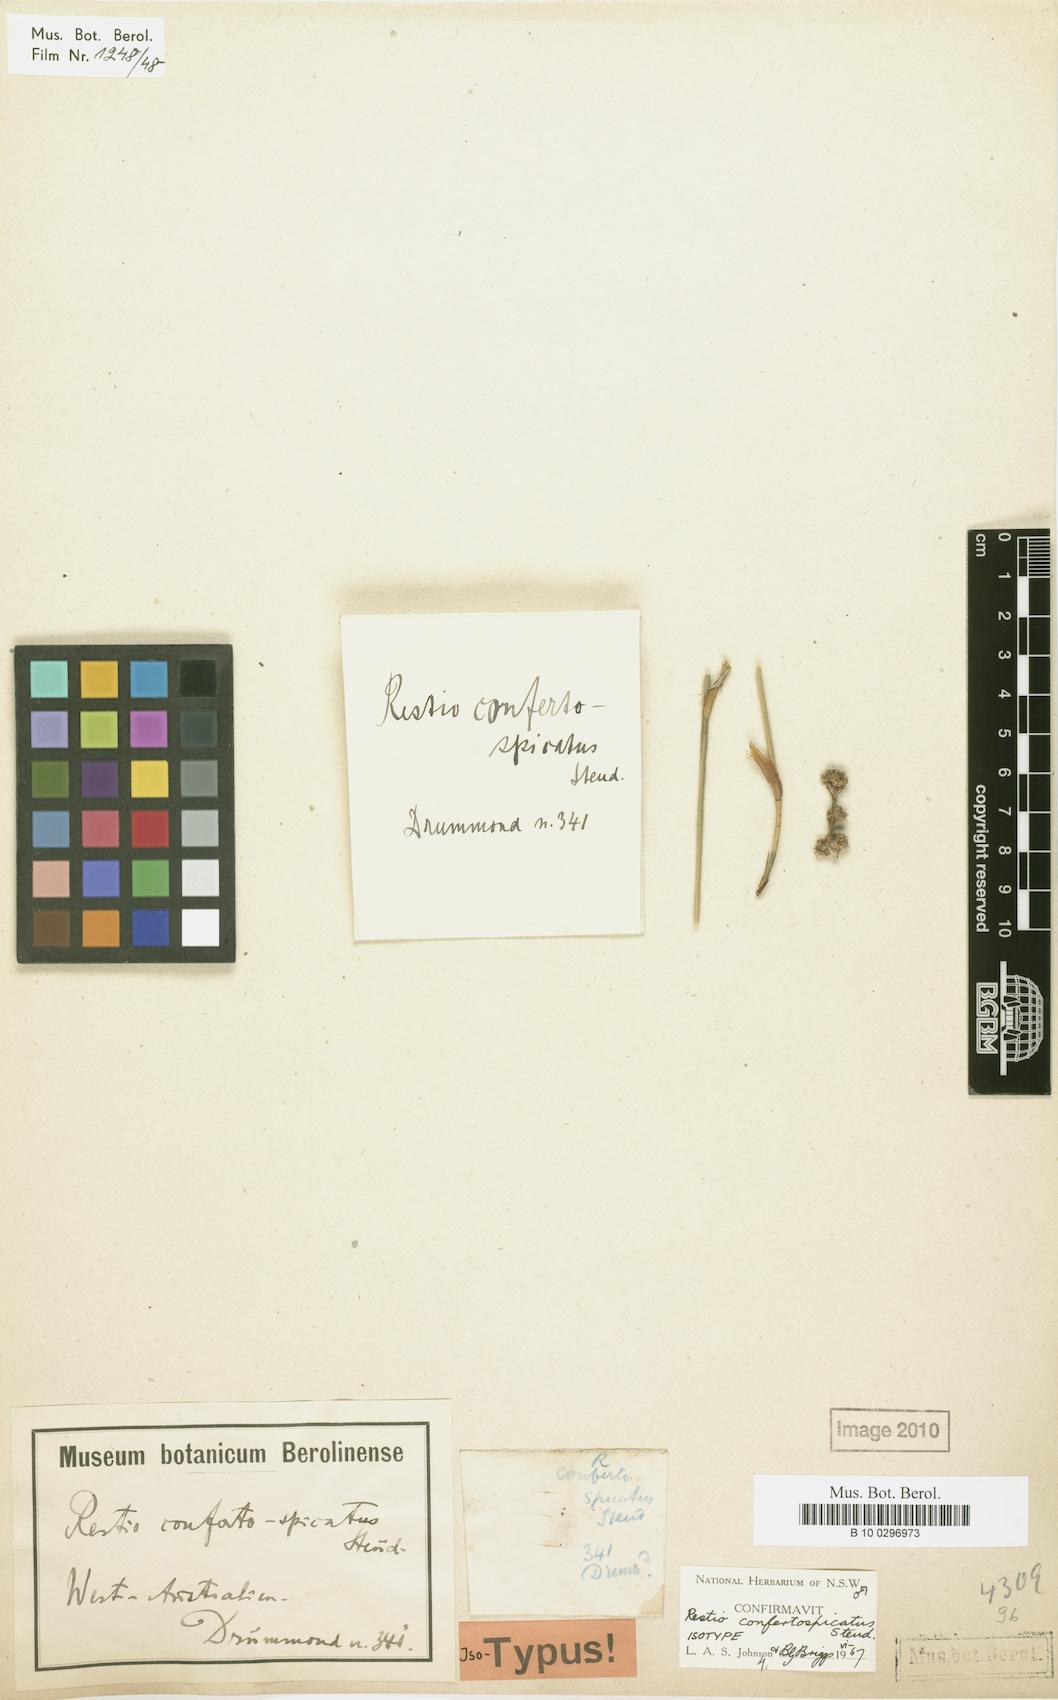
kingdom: Plantae
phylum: Tracheophyta
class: Liliopsida
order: Poales
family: Restionaceae
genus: Desmocladus
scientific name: Desmocladus confertospicatus
